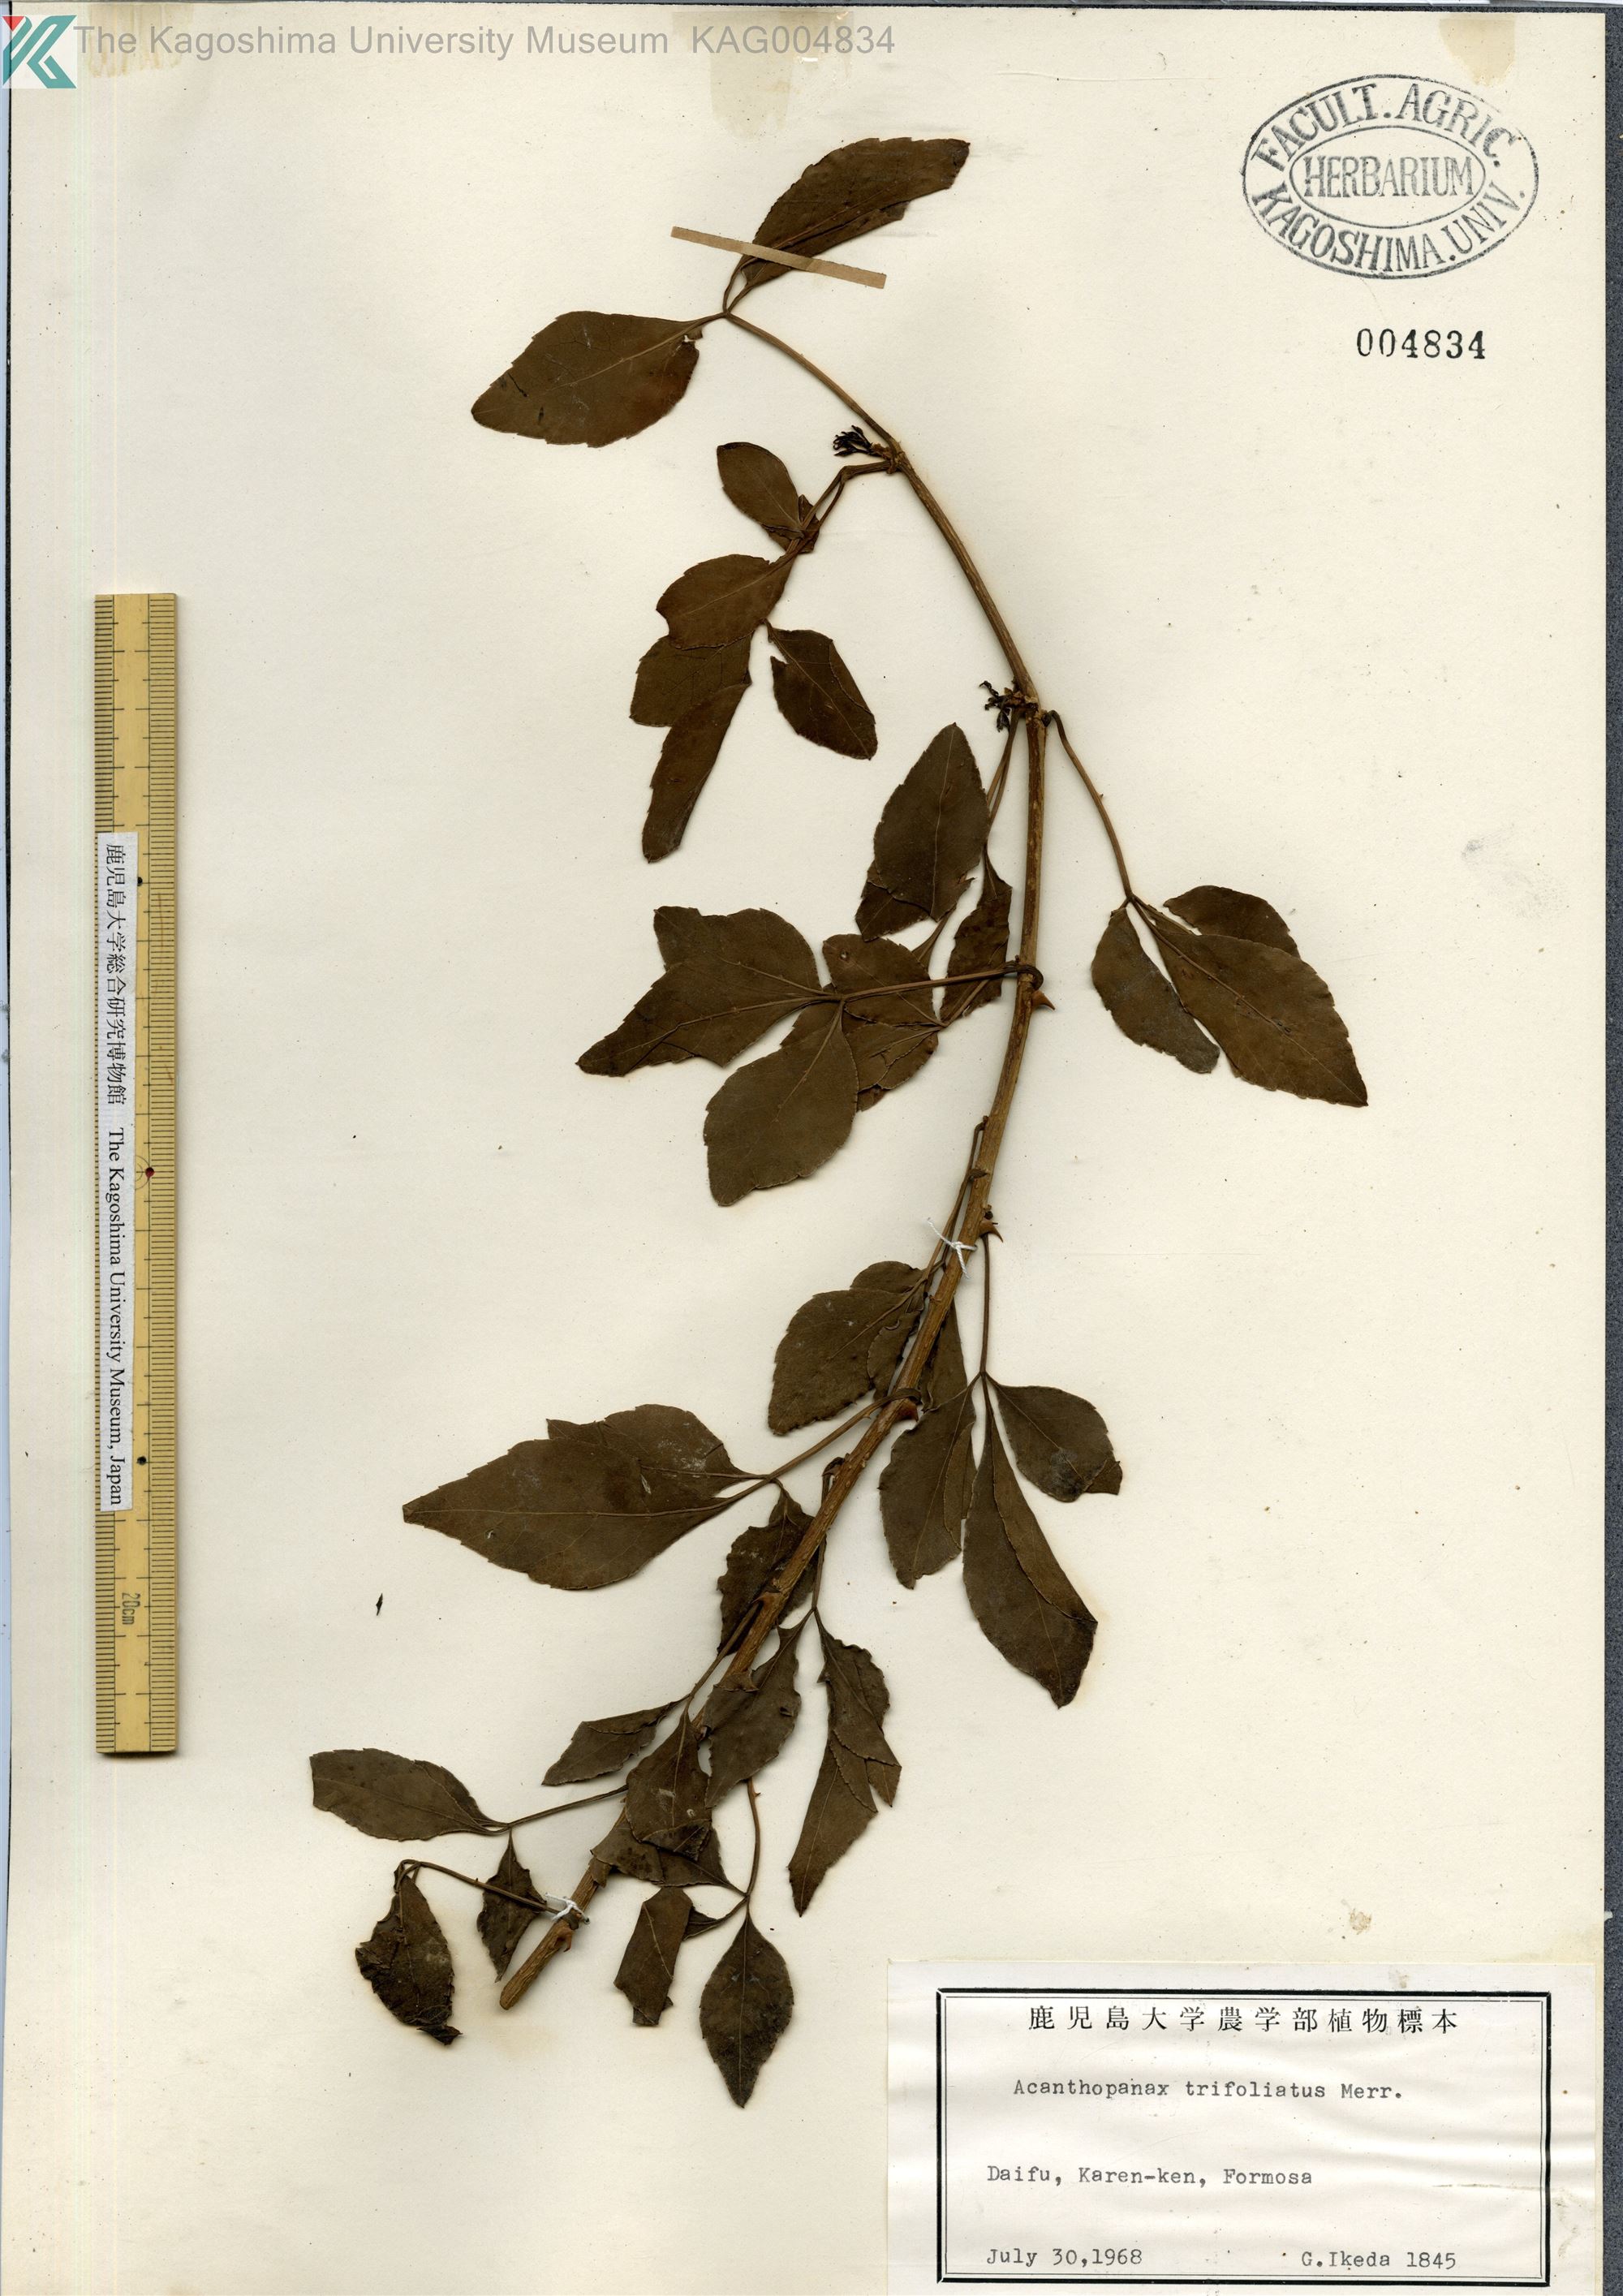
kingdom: Plantae
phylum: Tracheophyta
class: Magnoliopsida
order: Apiales
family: Araliaceae
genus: Eleutherococcus
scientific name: Eleutherococcus trifoliatus
